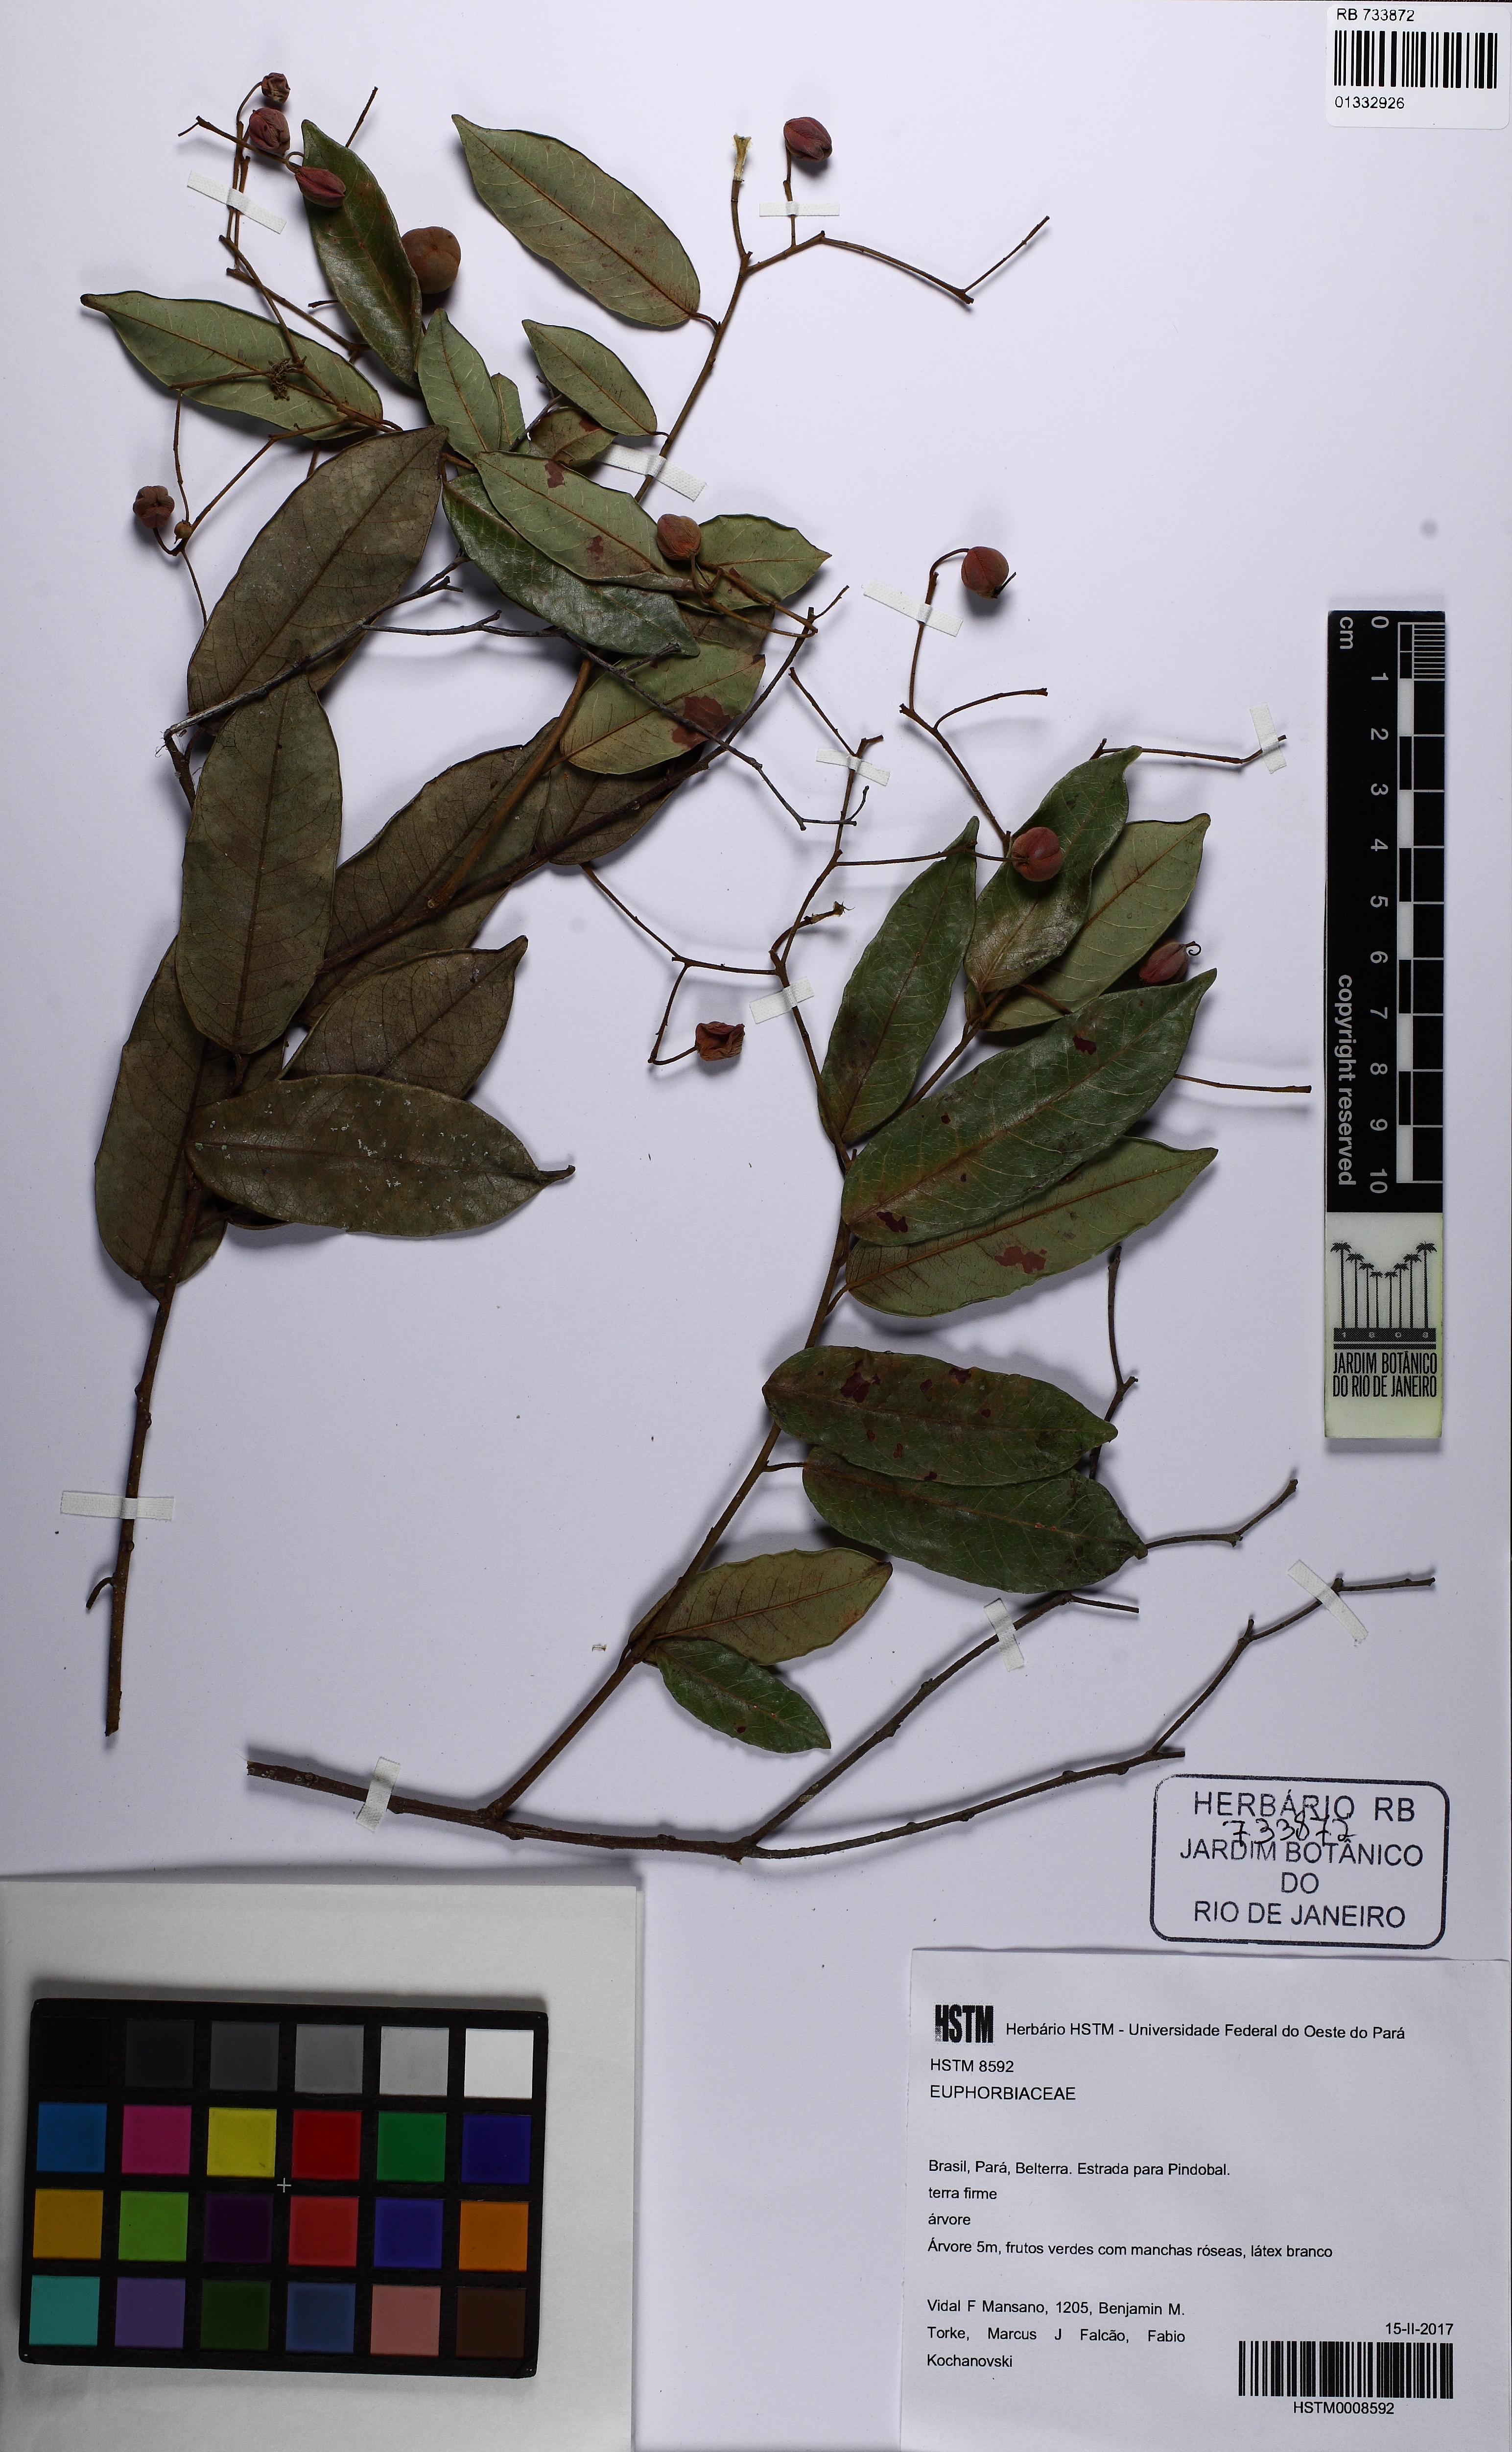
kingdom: Plantae
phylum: Tracheophyta
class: Magnoliopsida
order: Malpighiales
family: Euphorbiaceae
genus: Mabea
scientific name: Mabea
